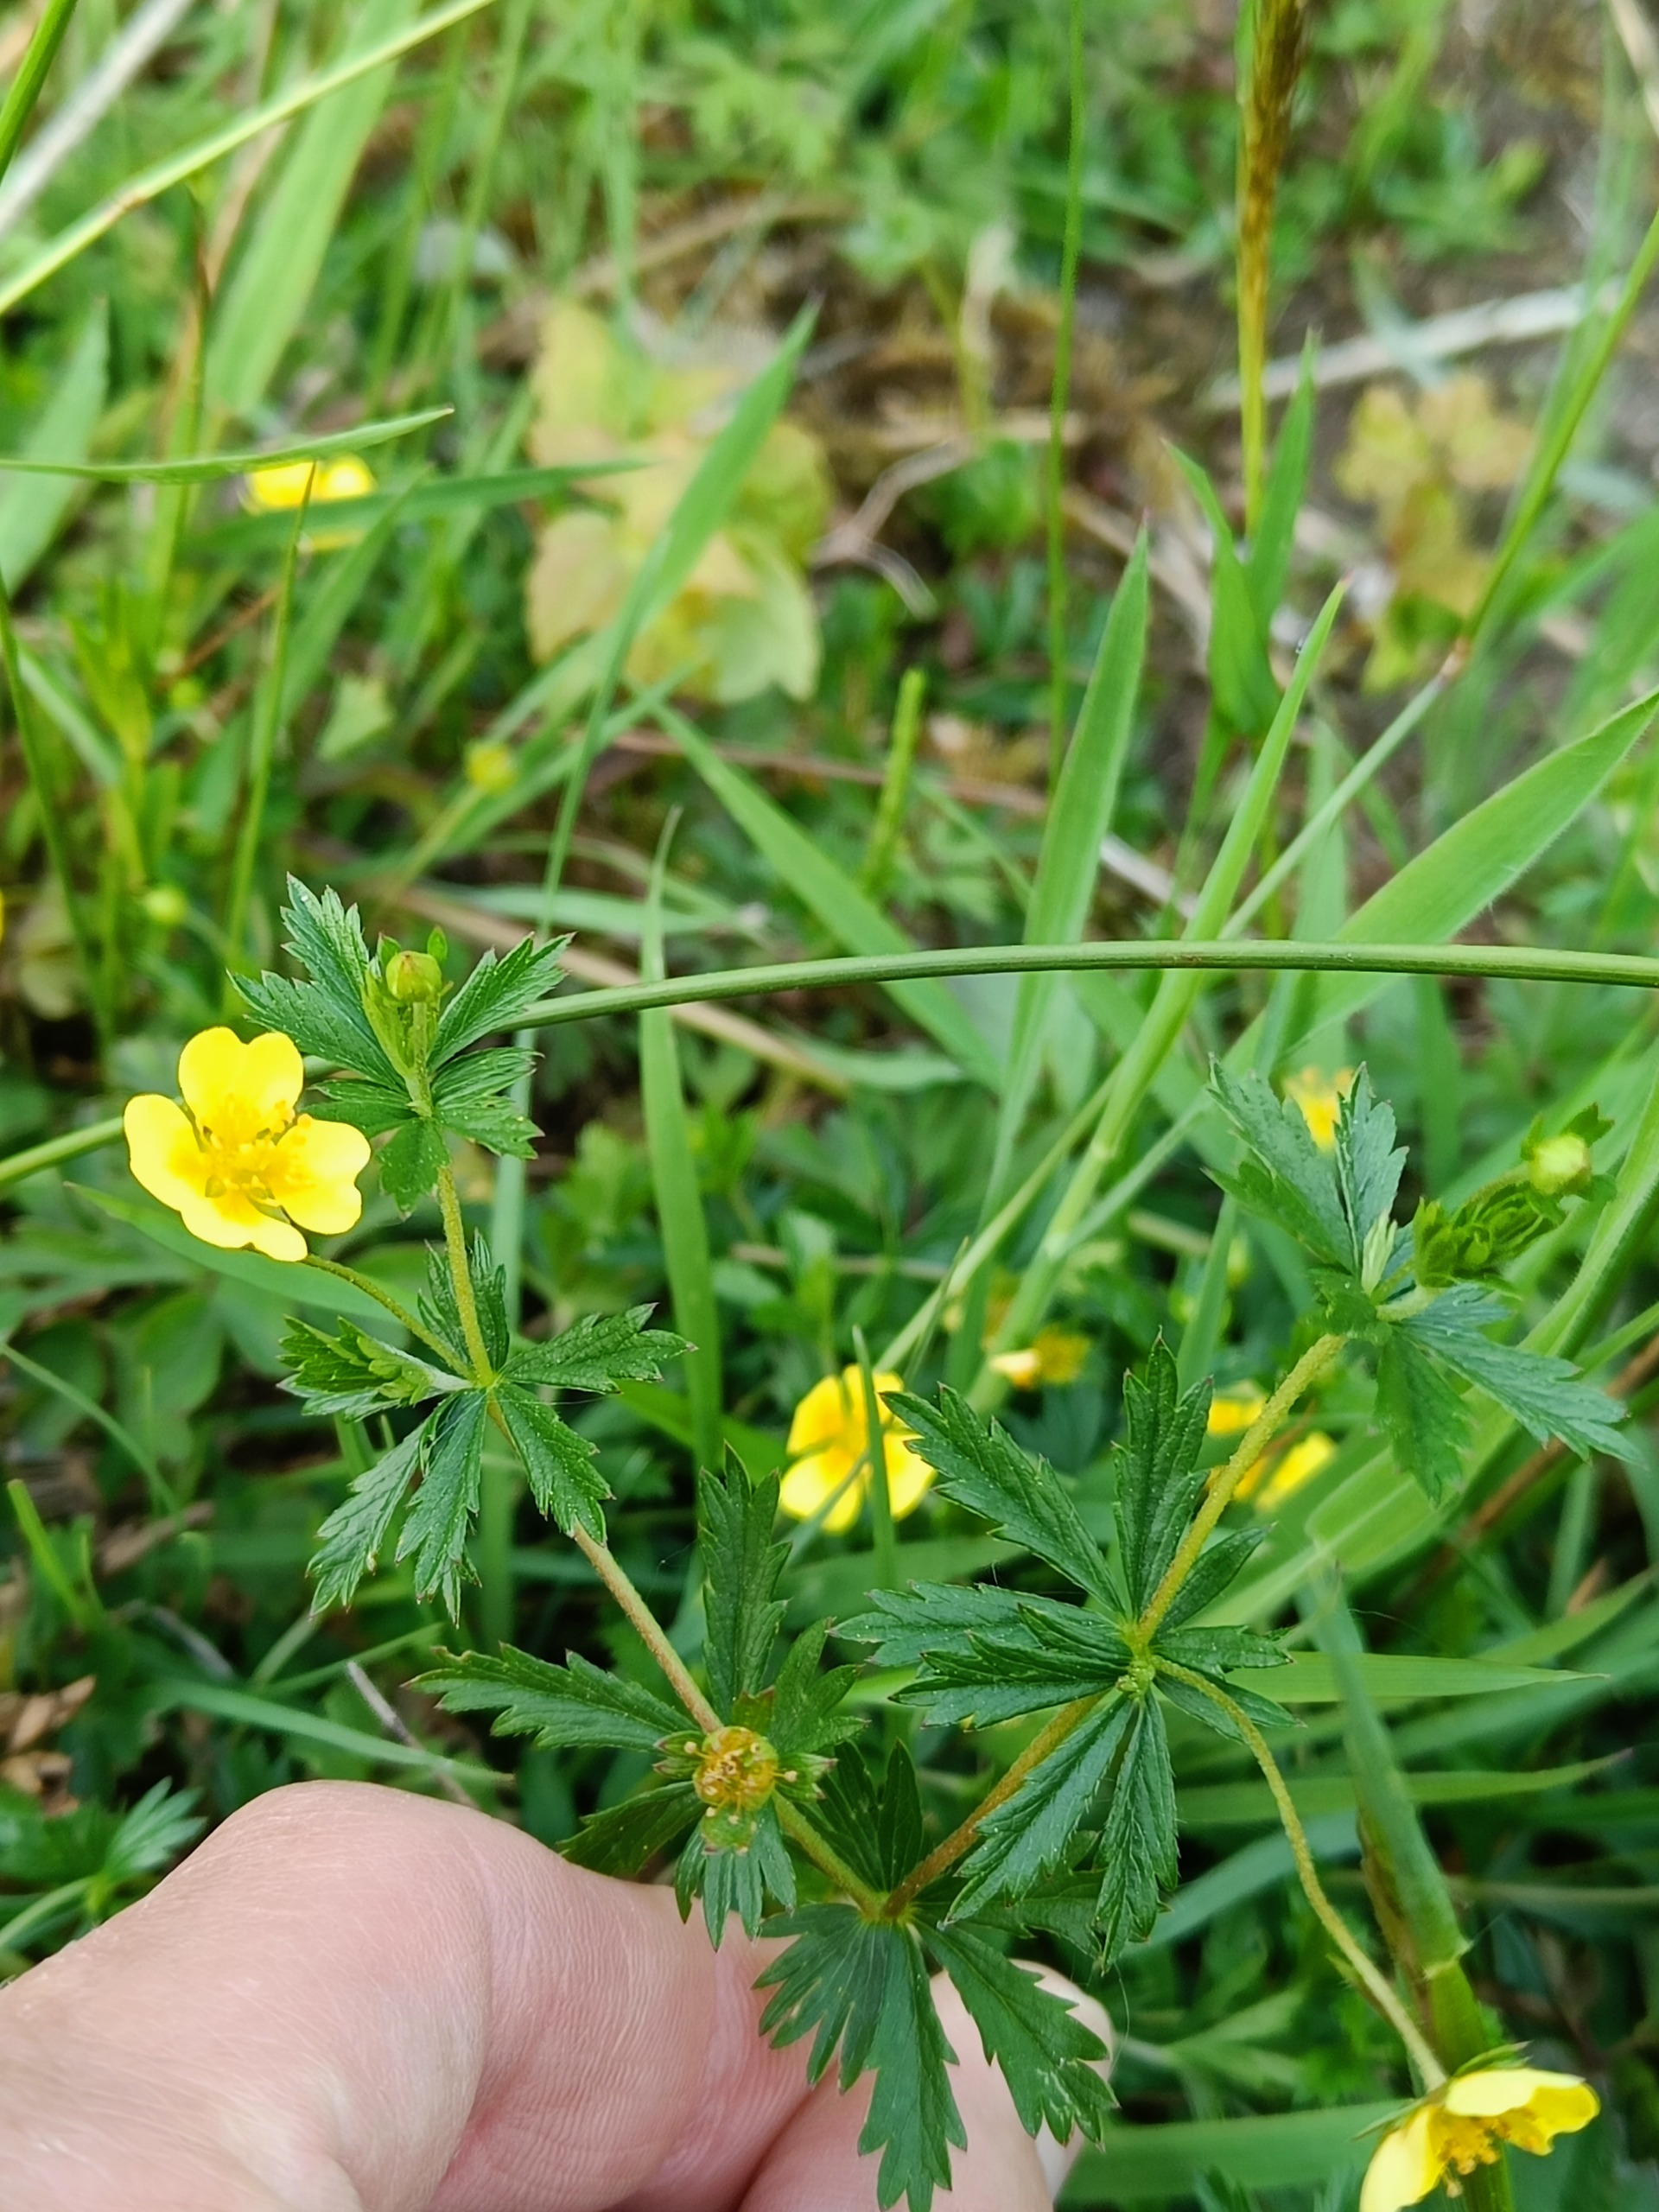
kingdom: Plantae
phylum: Tracheophyta
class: Magnoliopsida
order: Rosales
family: Rosaceae
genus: Potentilla
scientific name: Potentilla erecta
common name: Tormentil
